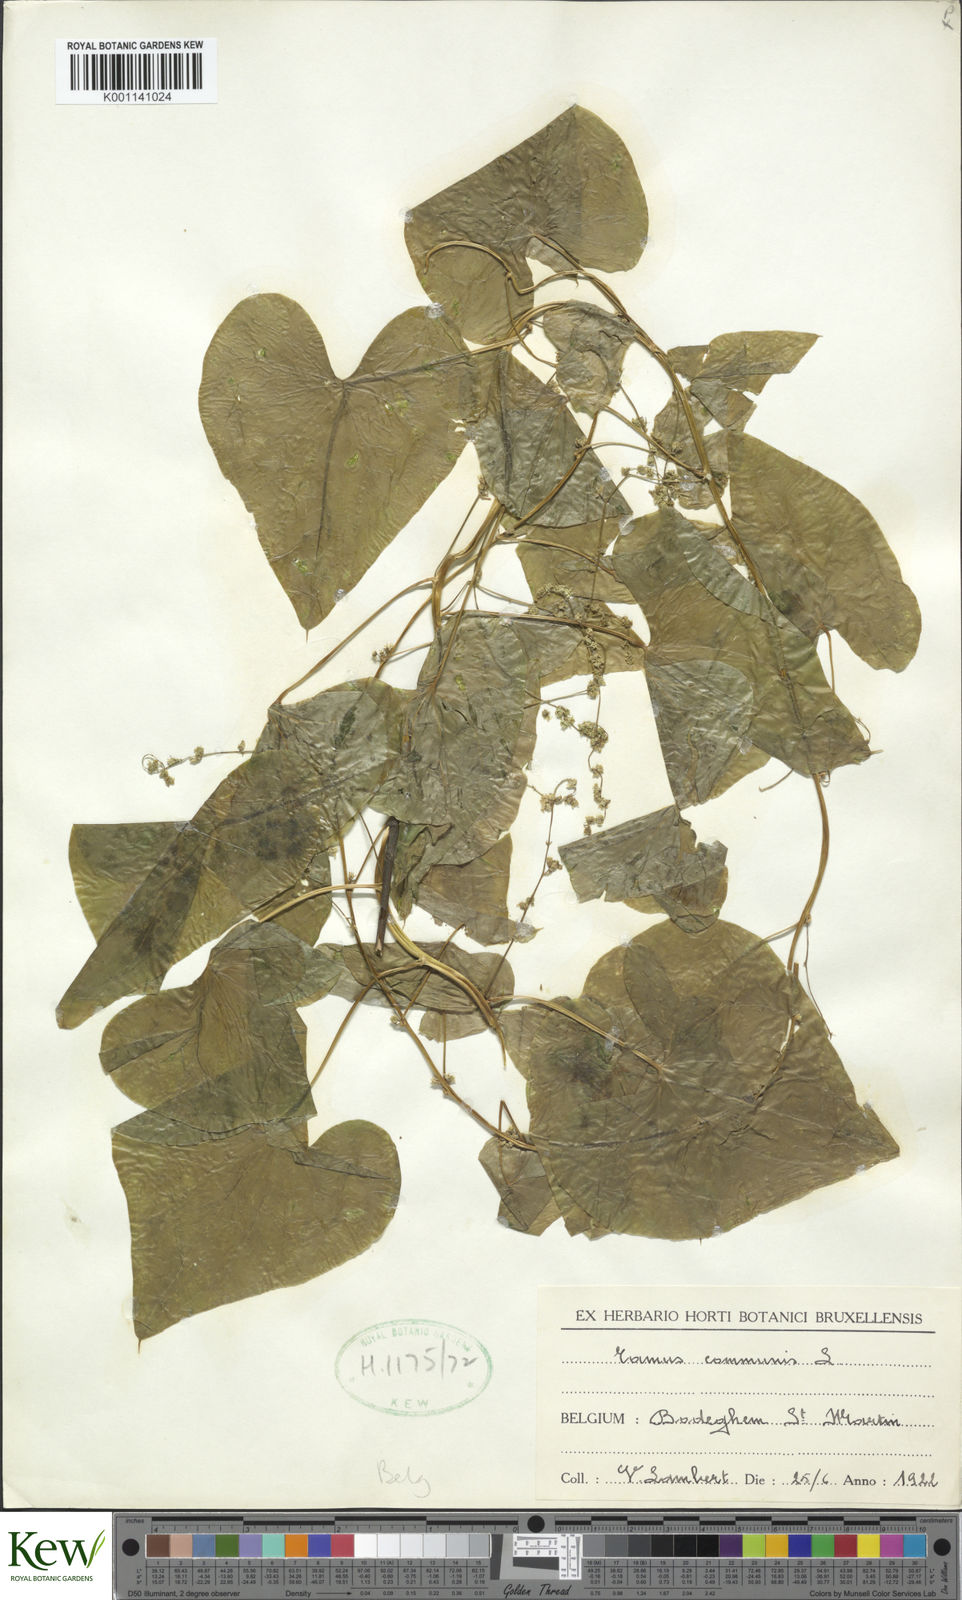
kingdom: Plantae
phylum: Tracheophyta
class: Liliopsida
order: Dioscoreales
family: Dioscoreaceae
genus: Dioscorea
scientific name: Dioscorea communis
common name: Black-bindweed
